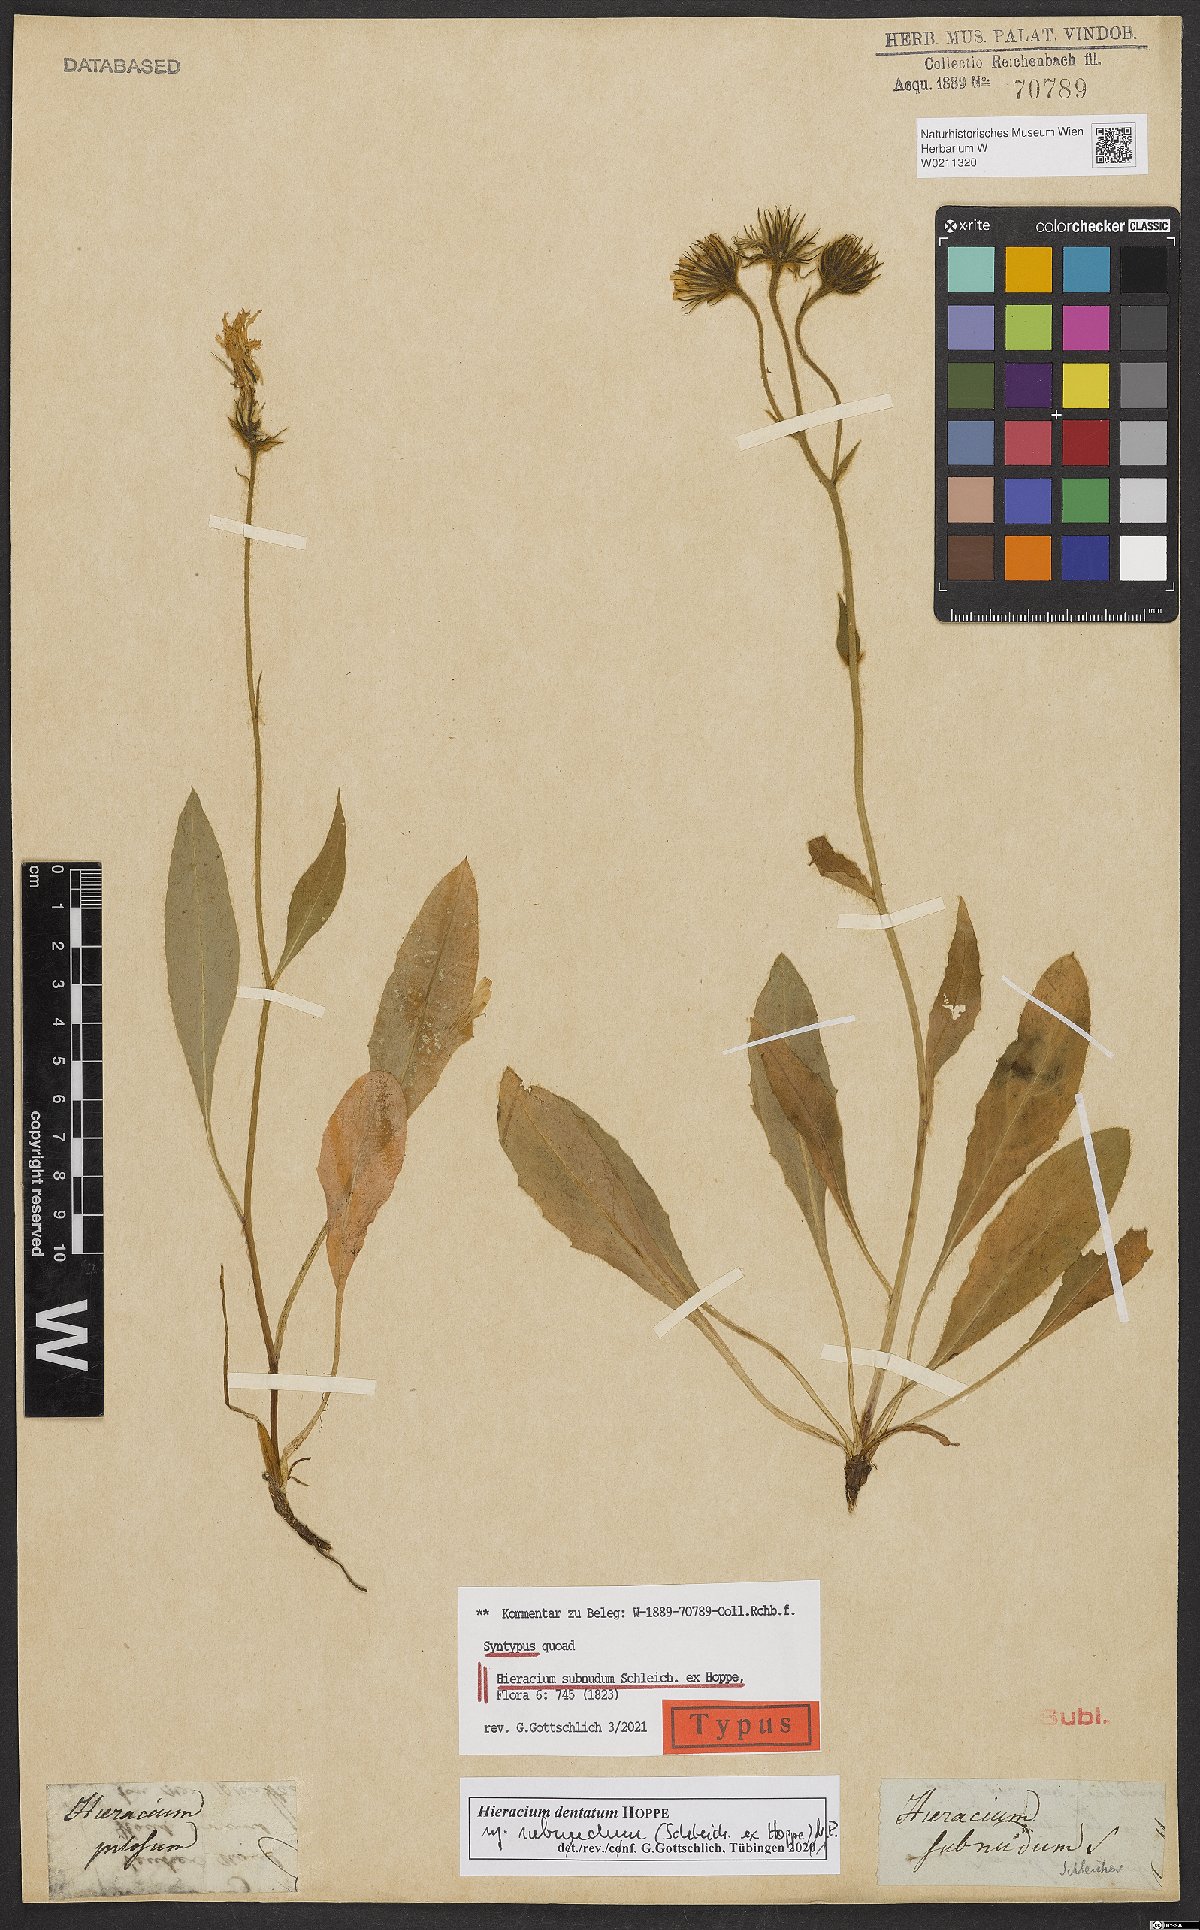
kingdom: Plantae
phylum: Tracheophyta
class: Magnoliopsida
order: Asterales
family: Asteraceae
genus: Hieracium
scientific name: Hieracium dentatum
